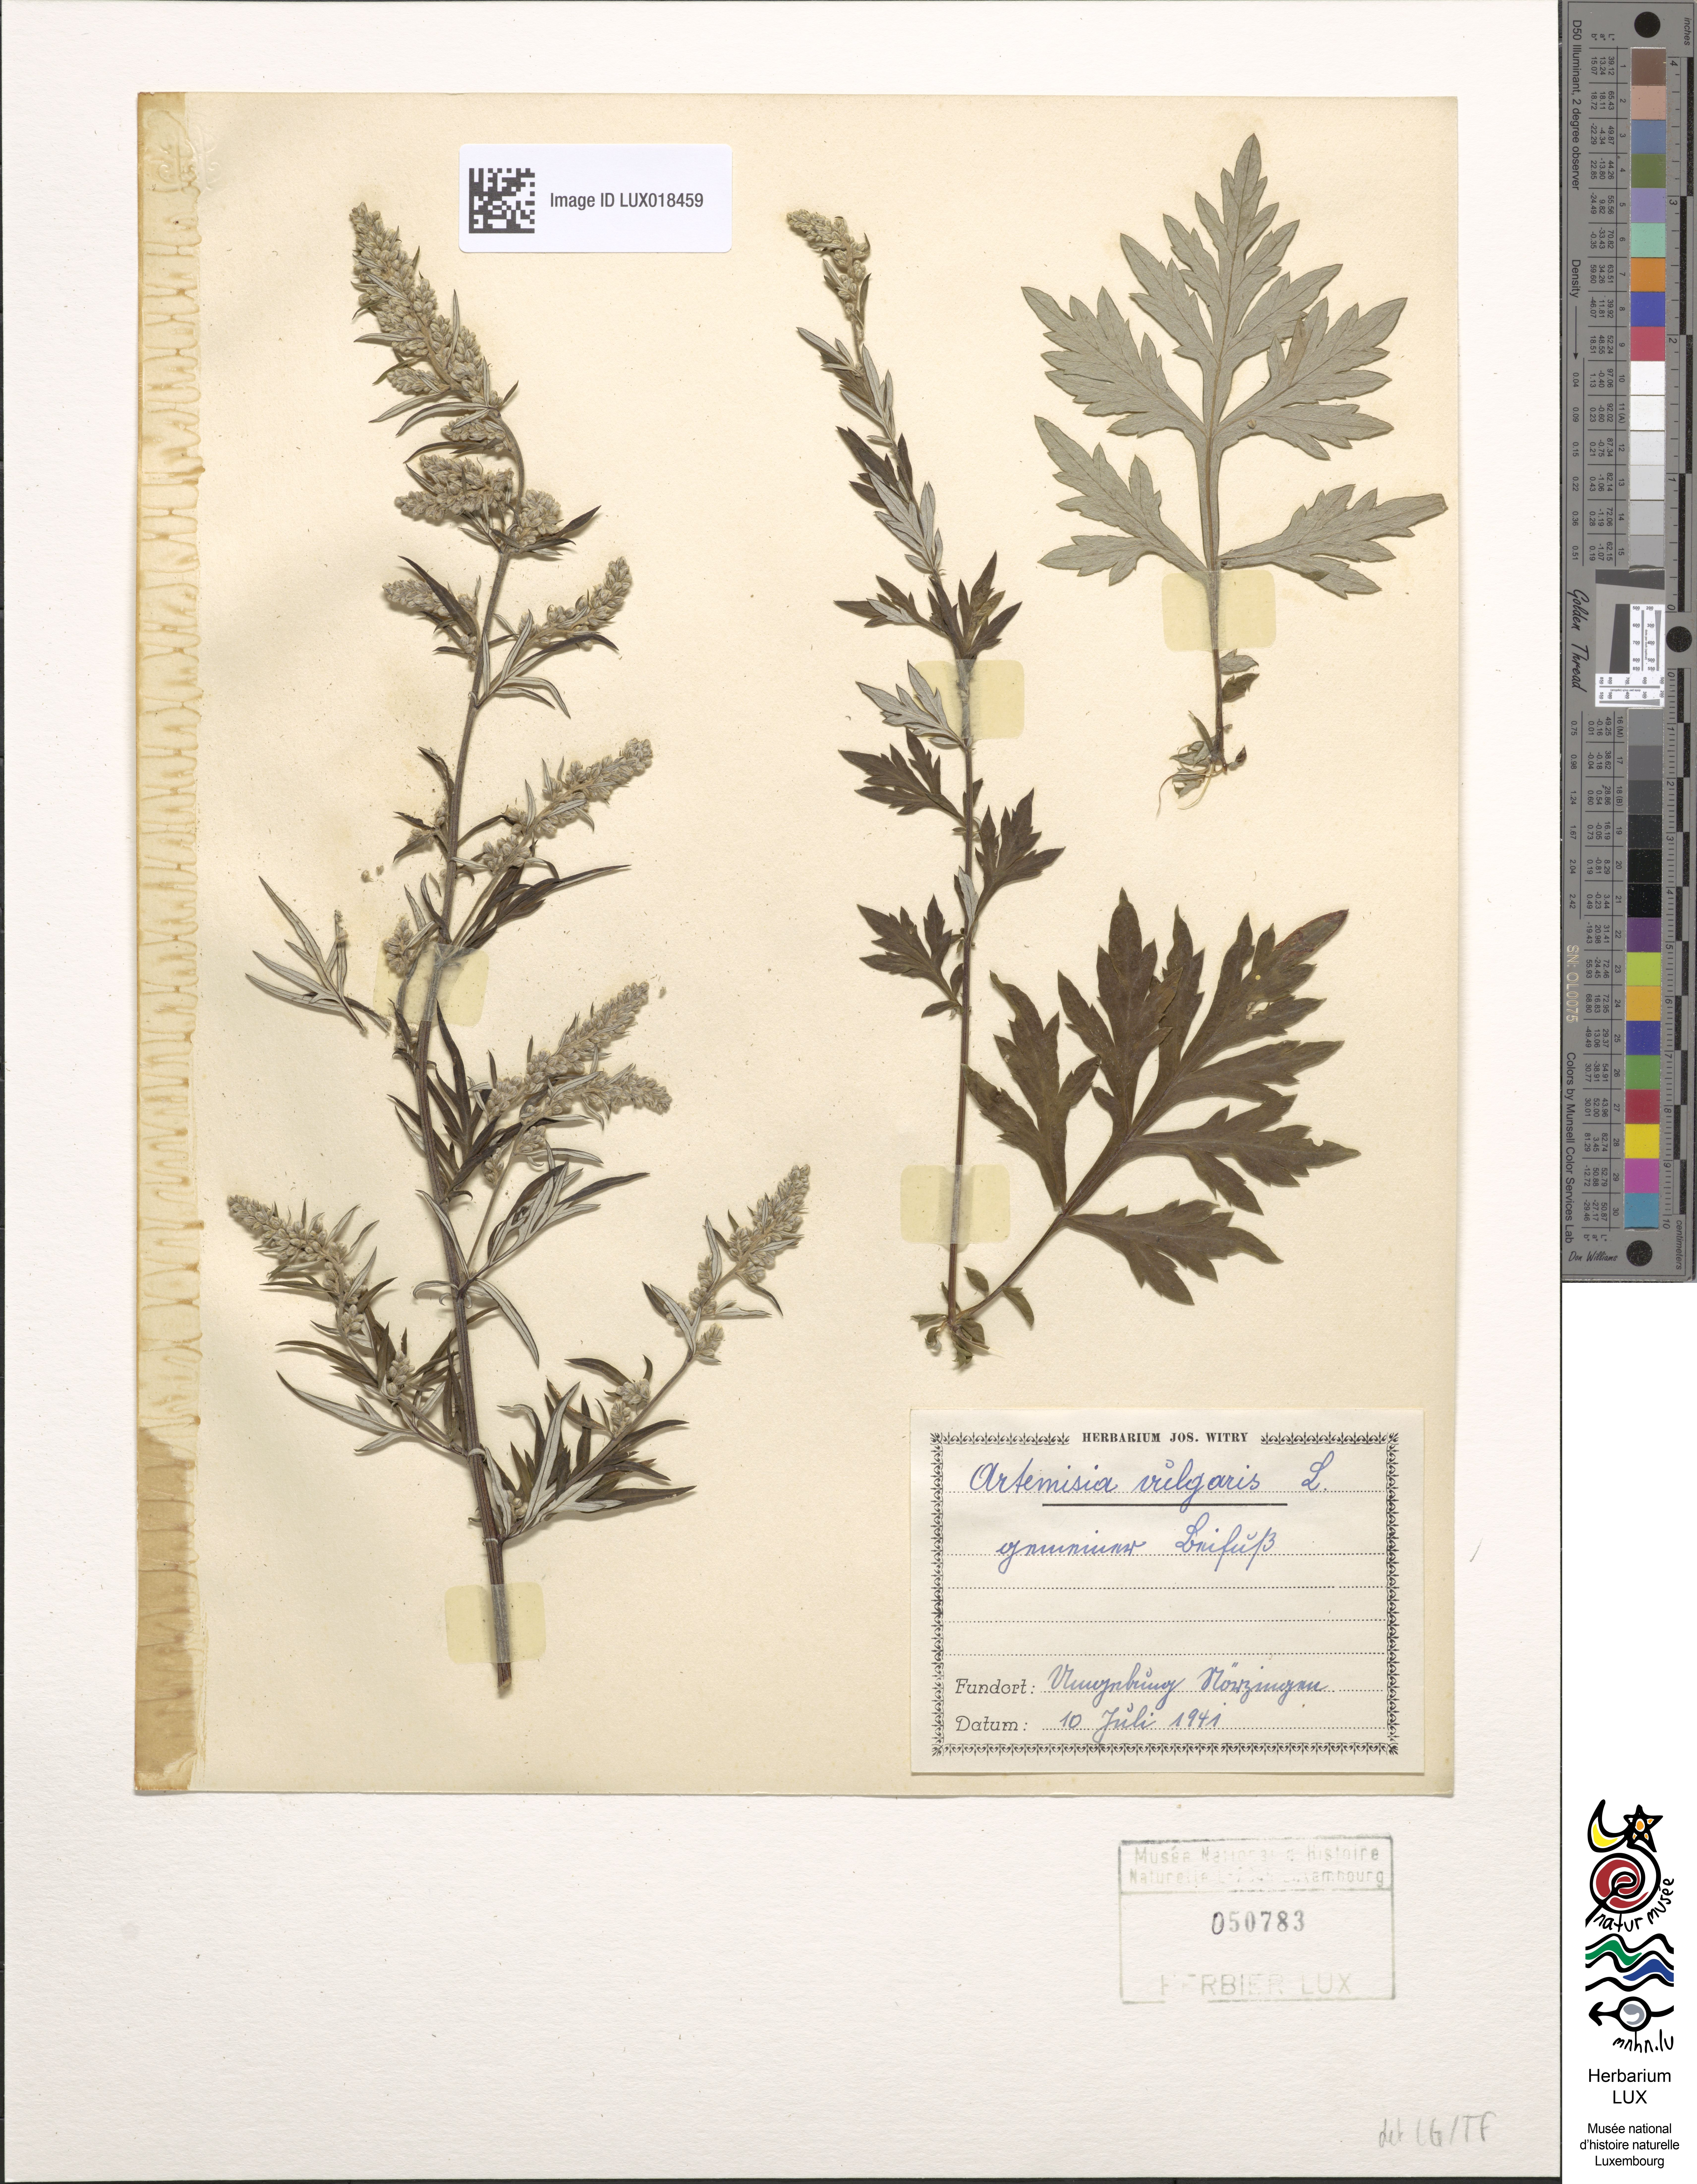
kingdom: Plantae
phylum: Tracheophyta
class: Magnoliopsida
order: Asterales
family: Asteraceae
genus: Artemisia
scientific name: Artemisia vulgaris
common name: Mugwort
